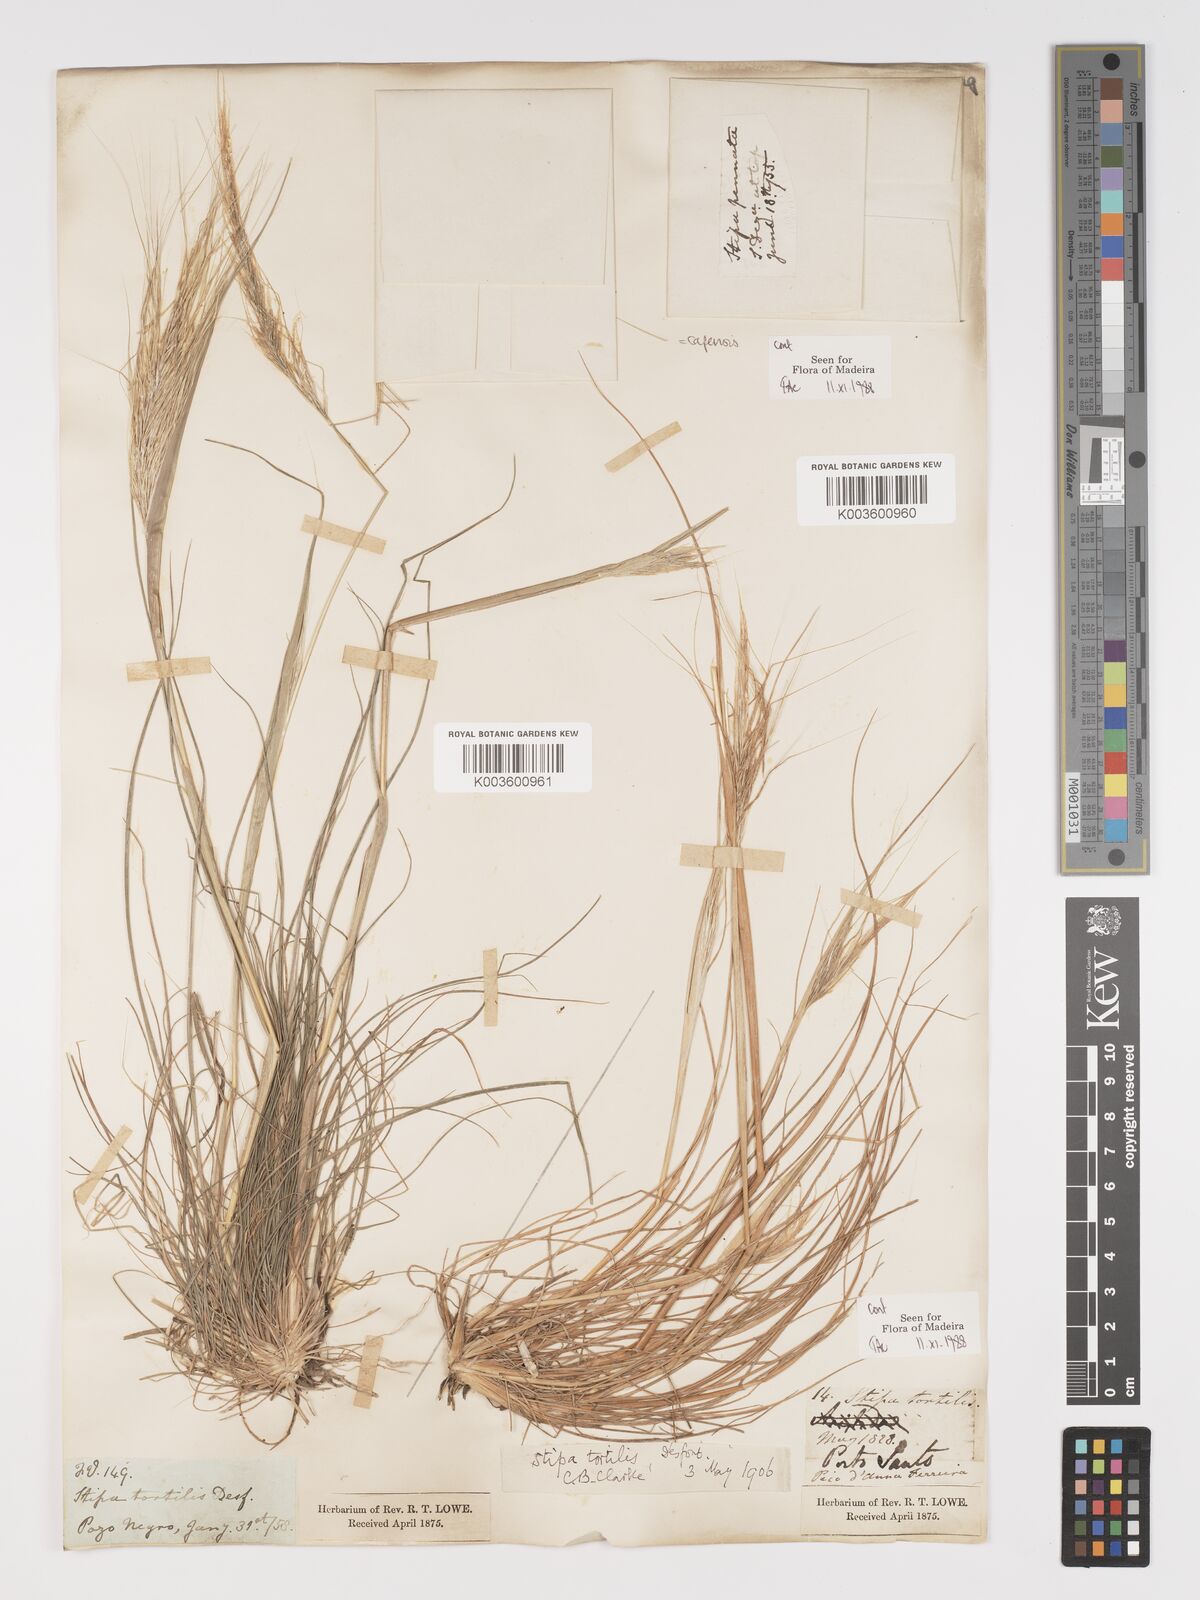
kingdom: Plantae
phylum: Tracheophyta
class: Liliopsida
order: Poales
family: Poaceae
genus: Stipellula
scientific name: Stipellula capensis
